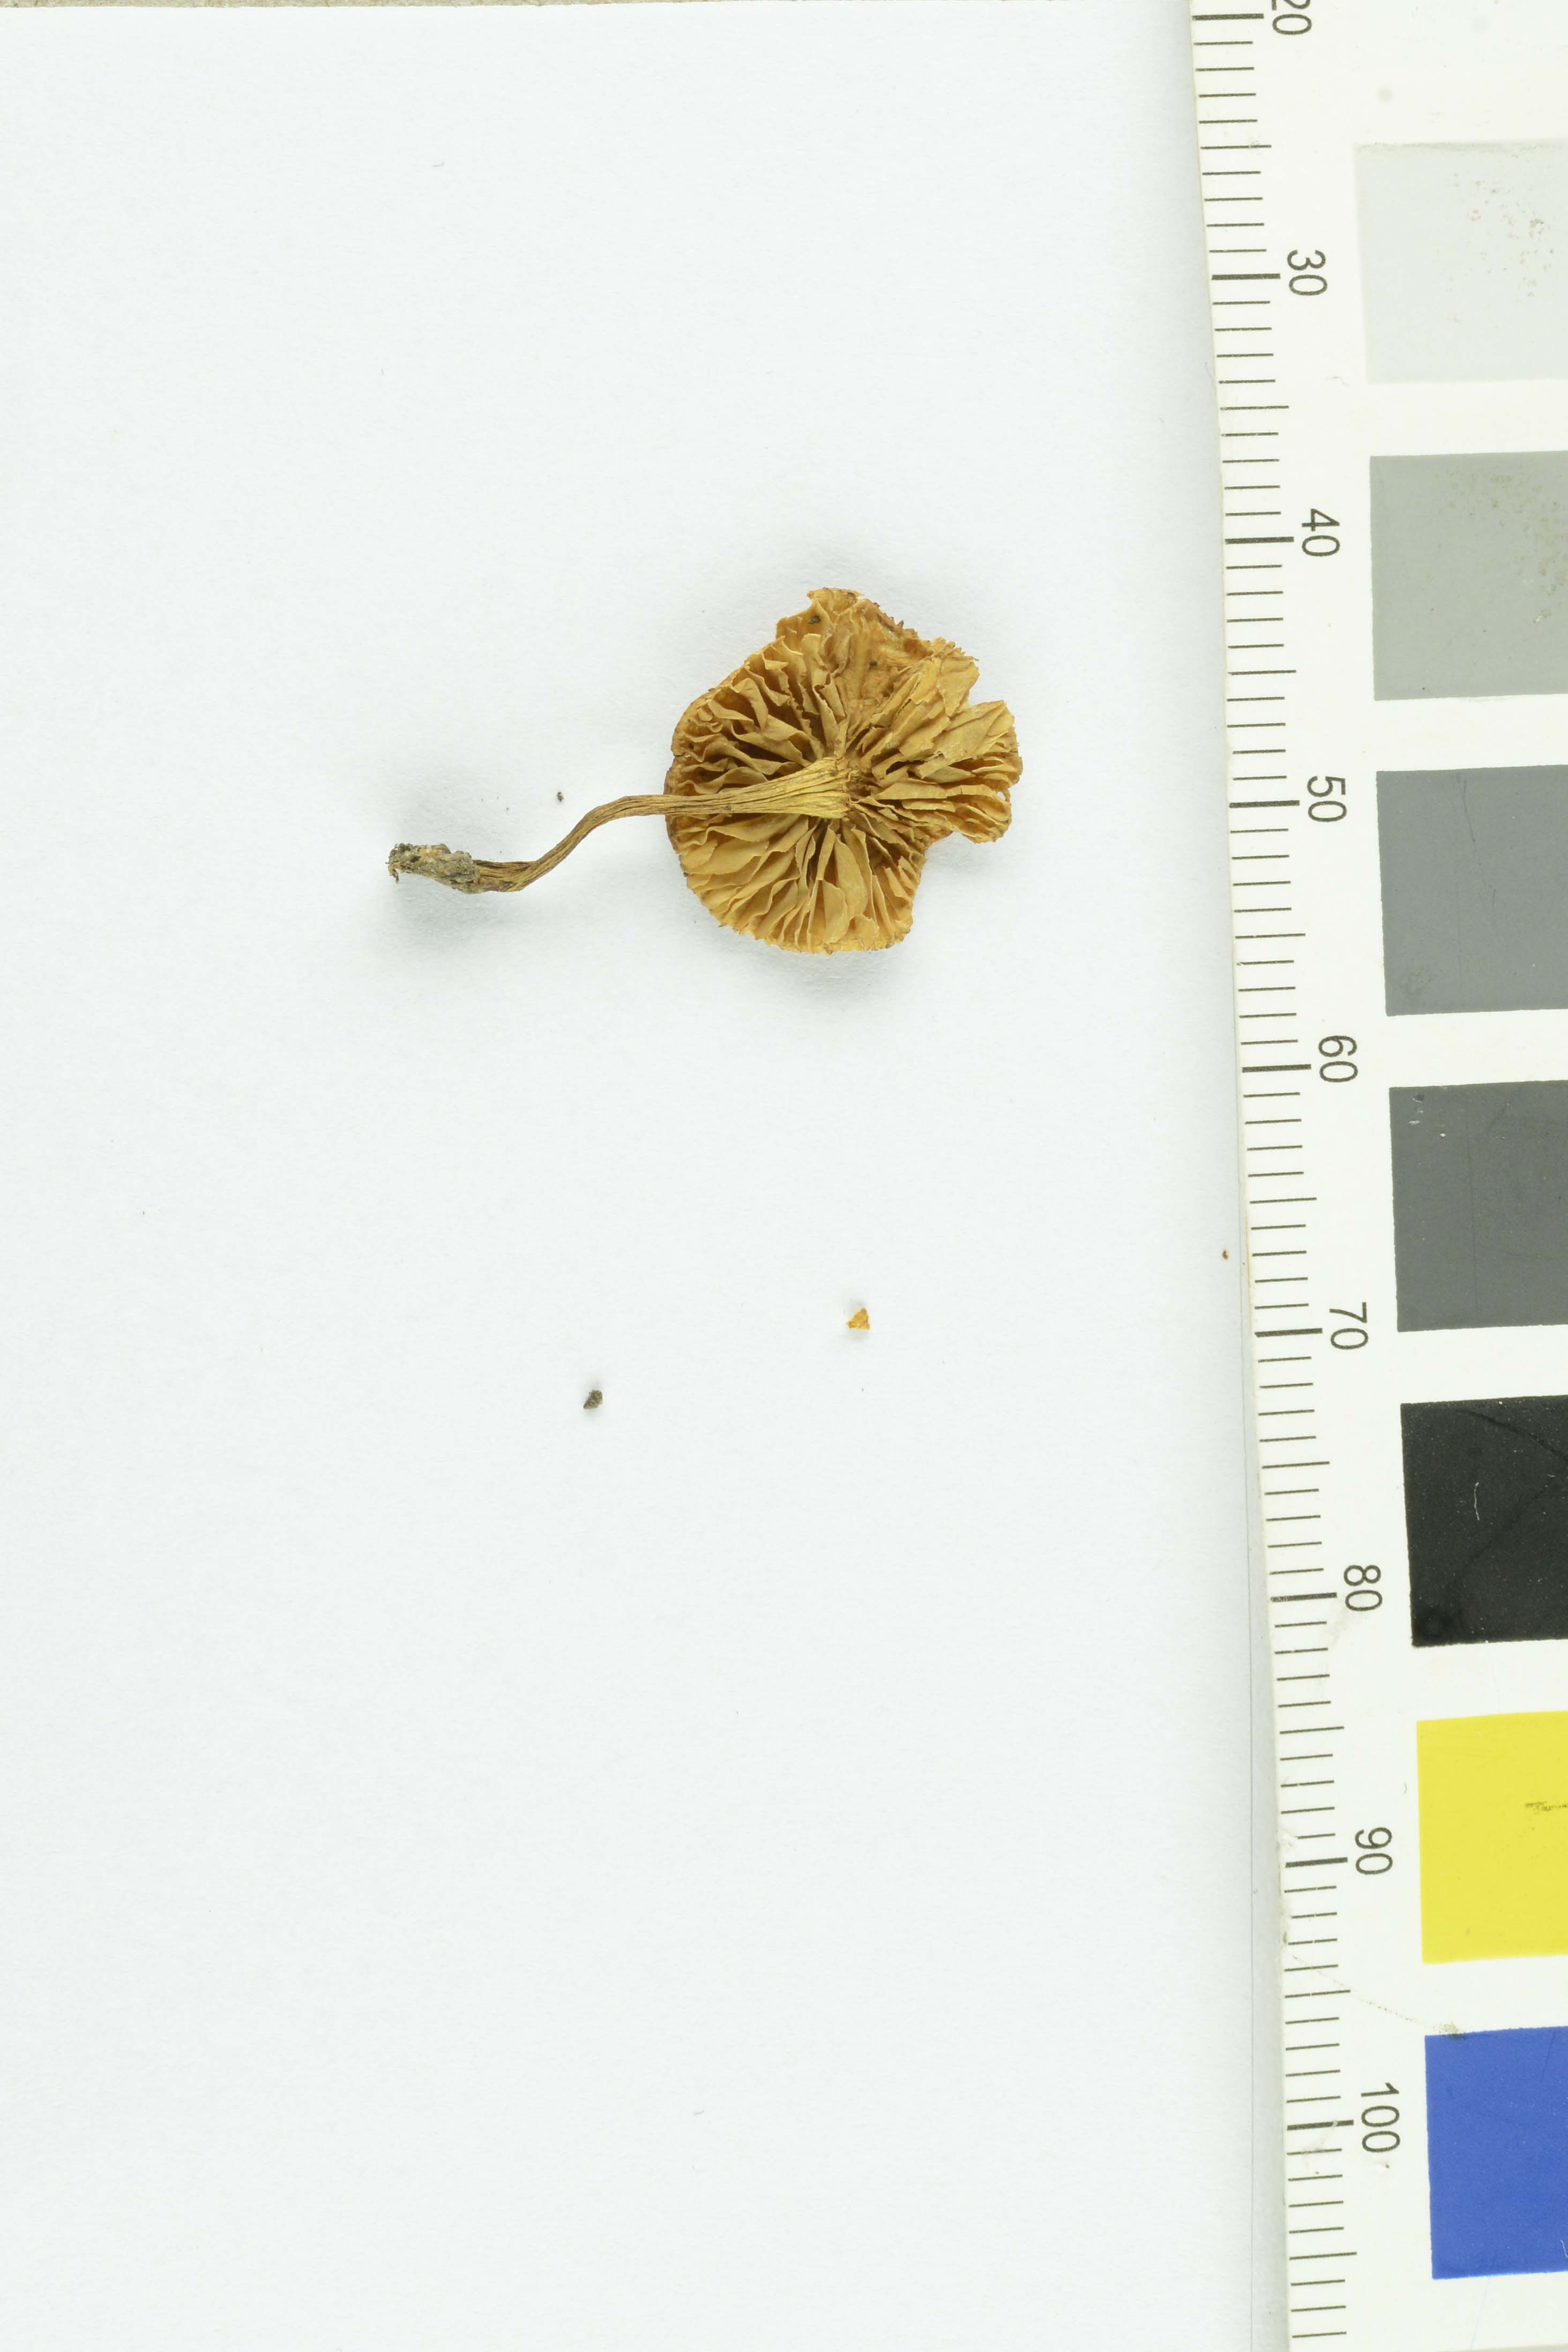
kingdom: Fungi
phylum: Basidiomycota
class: Agaricomycetes
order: Agaricales
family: Strophariaceae
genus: Pholiota
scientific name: Pholiota tuberculosa
